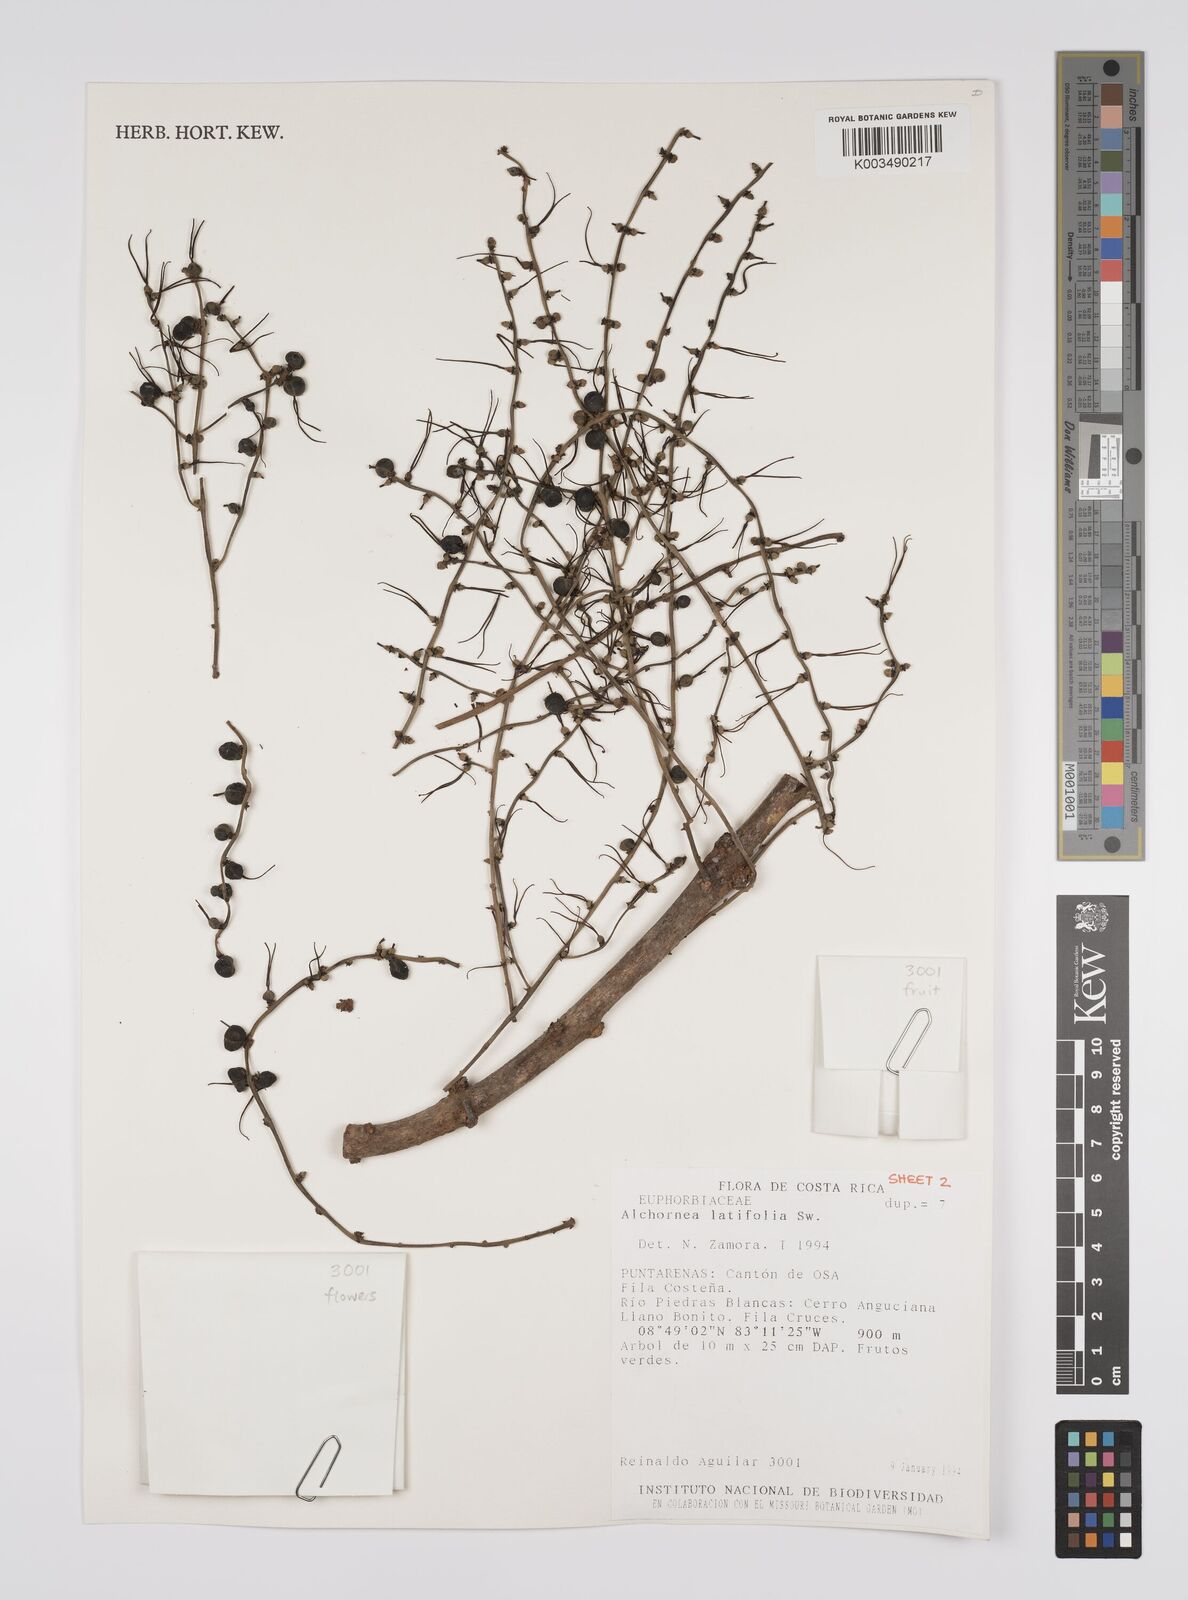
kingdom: Plantae
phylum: Tracheophyta
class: Magnoliopsida
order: Malpighiales
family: Euphorbiaceae
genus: Alchornea
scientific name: Alchornea latifolia
